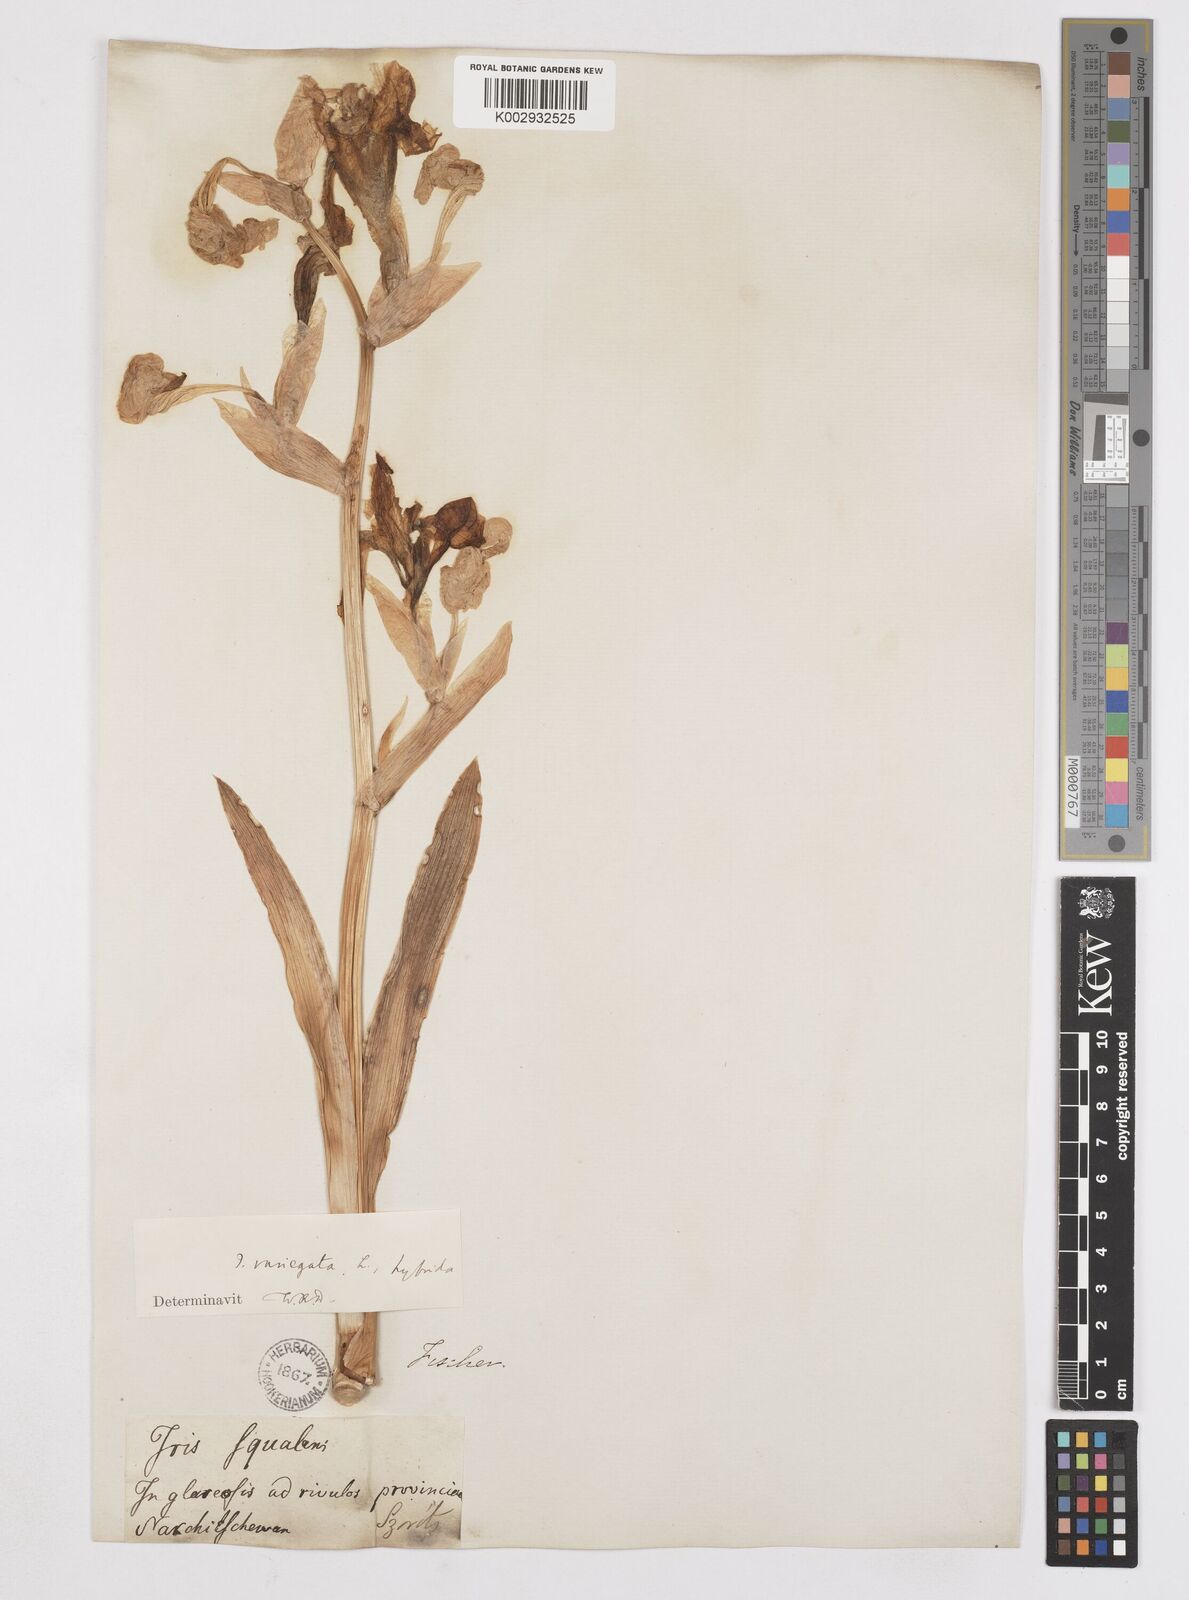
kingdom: Plantae
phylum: Tracheophyta
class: Liliopsida
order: Asparagales
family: Iridaceae
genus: Iris
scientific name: Iris
